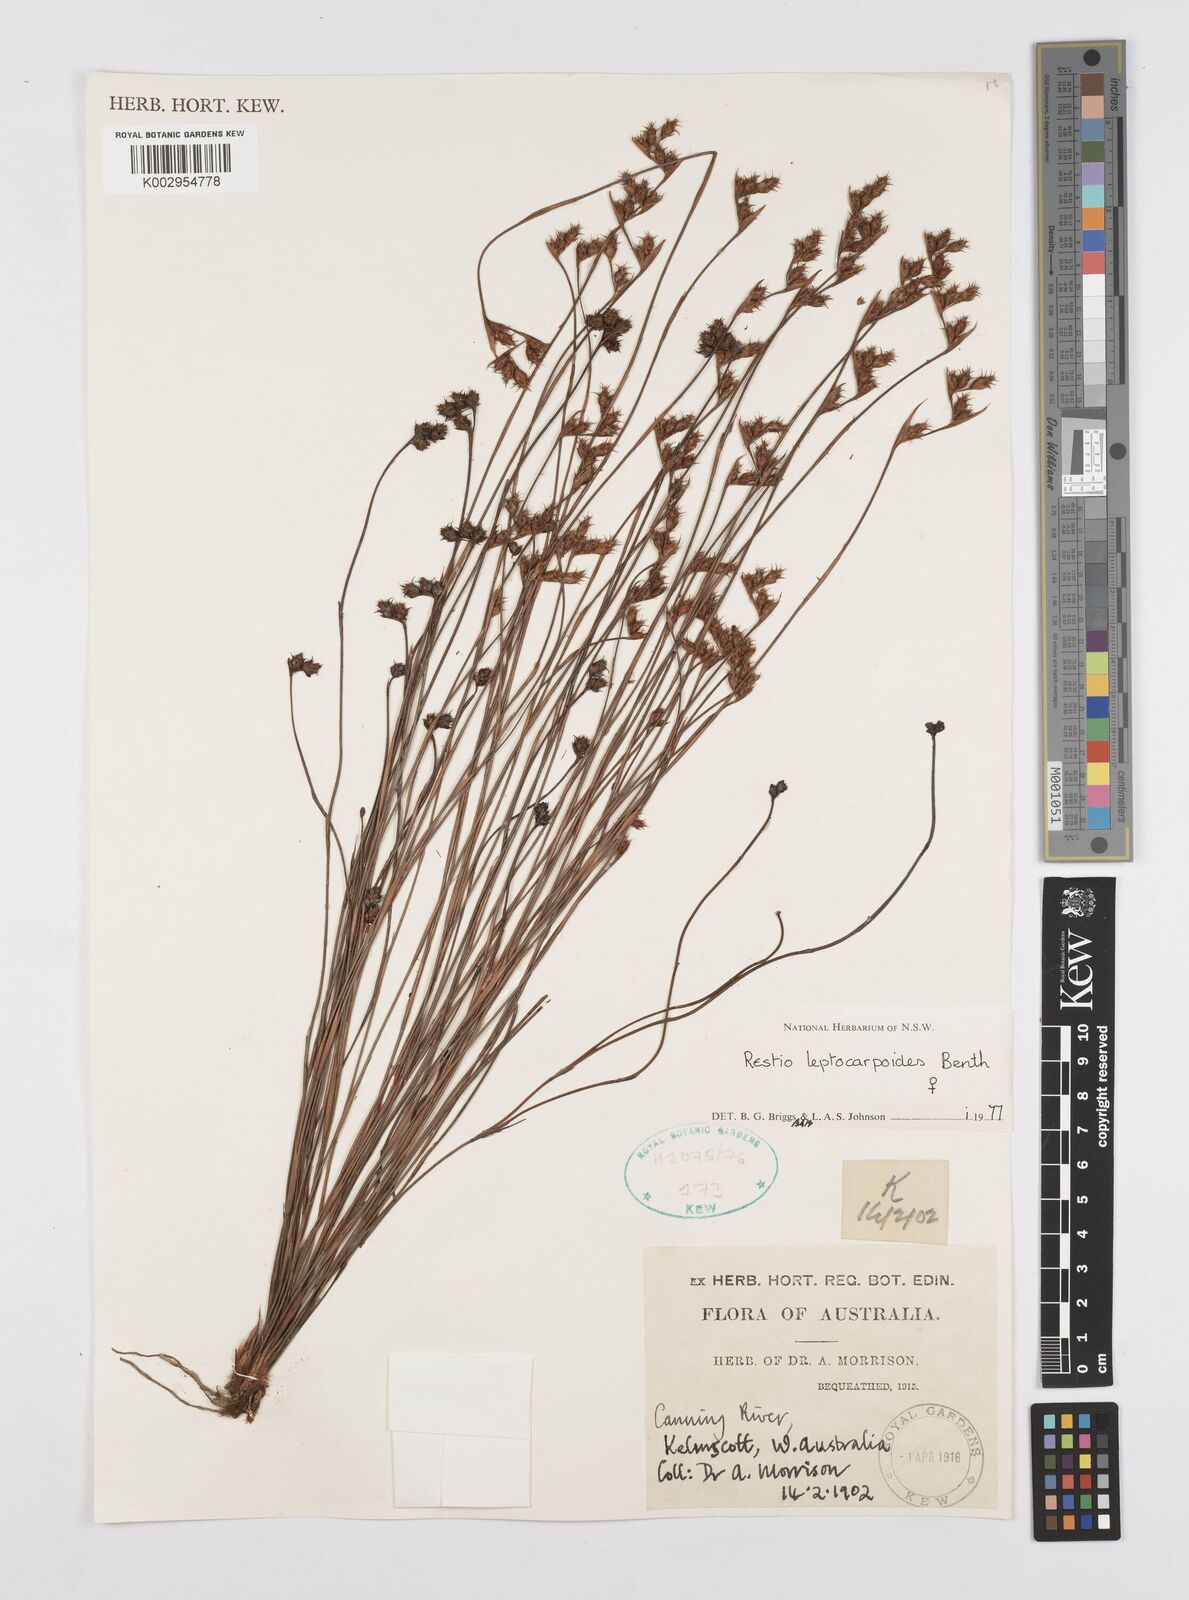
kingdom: Plantae
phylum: Tracheophyta
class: Liliopsida
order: Poales
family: Restionaceae
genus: Cytogonidium
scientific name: Cytogonidium leptocarpoides
